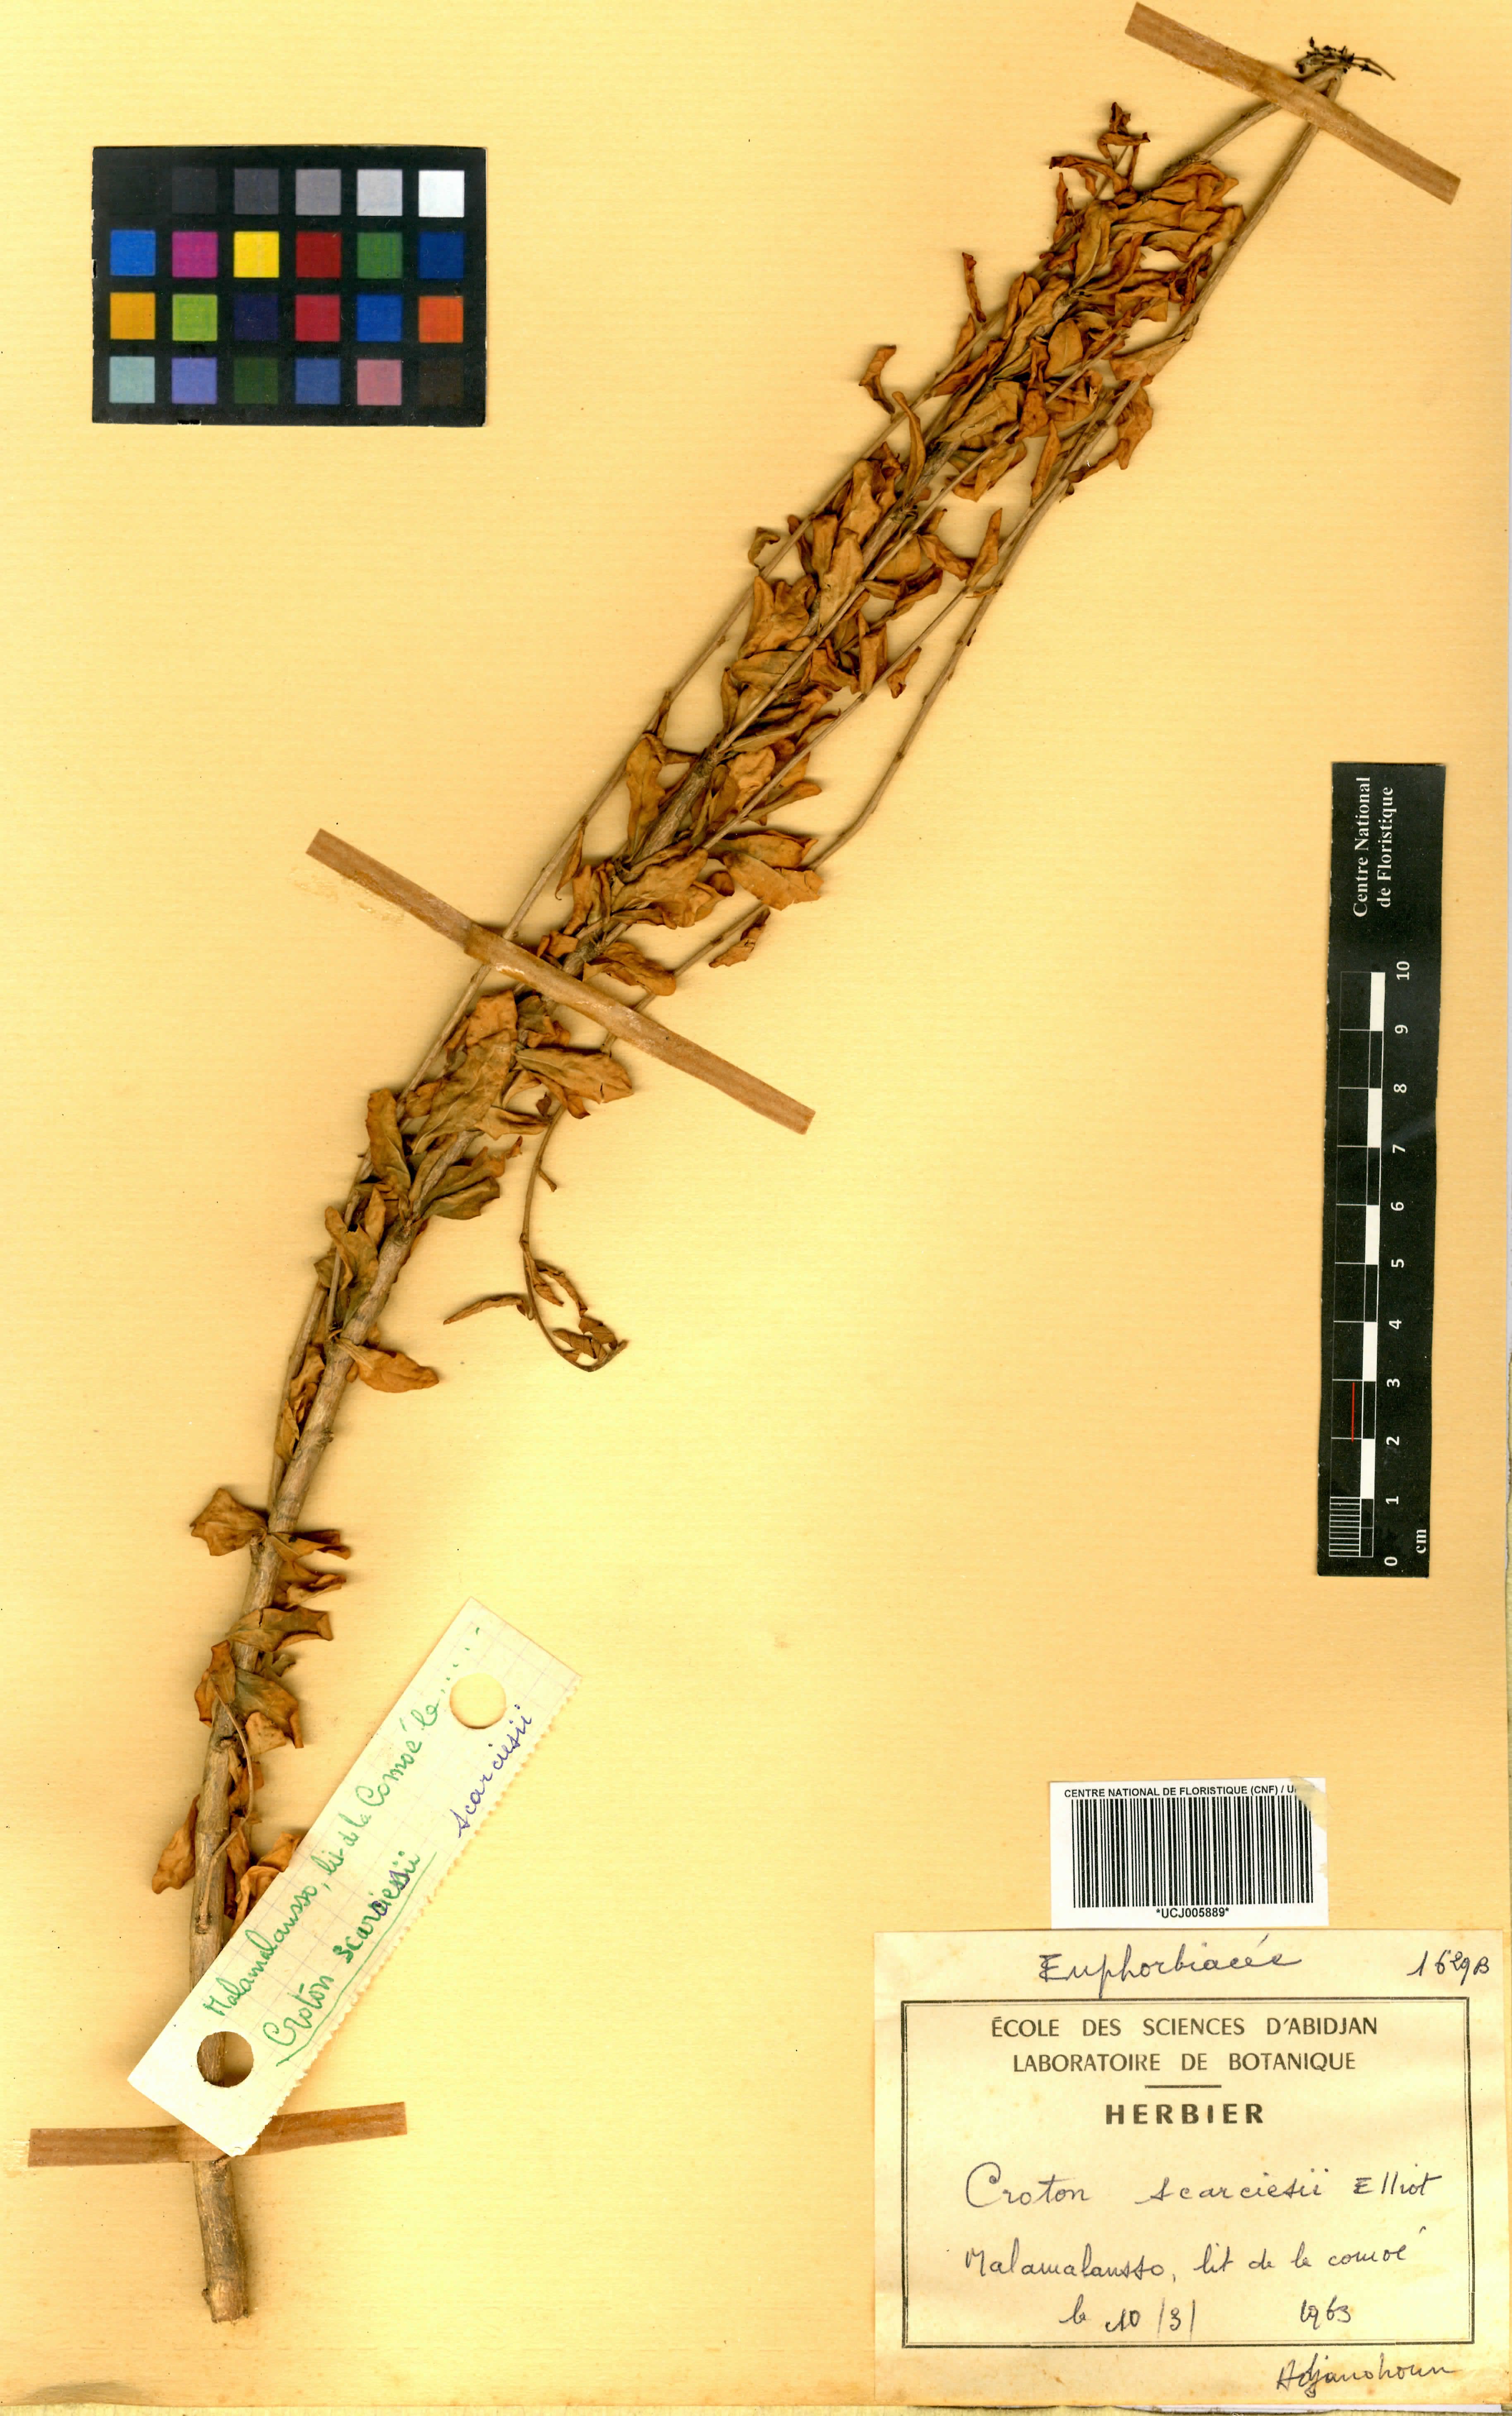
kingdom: Plantae
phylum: Tracheophyta
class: Magnoliopsida
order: Malpighiales
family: Euphorbiaceae
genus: Karima
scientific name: Karima scarciesii
